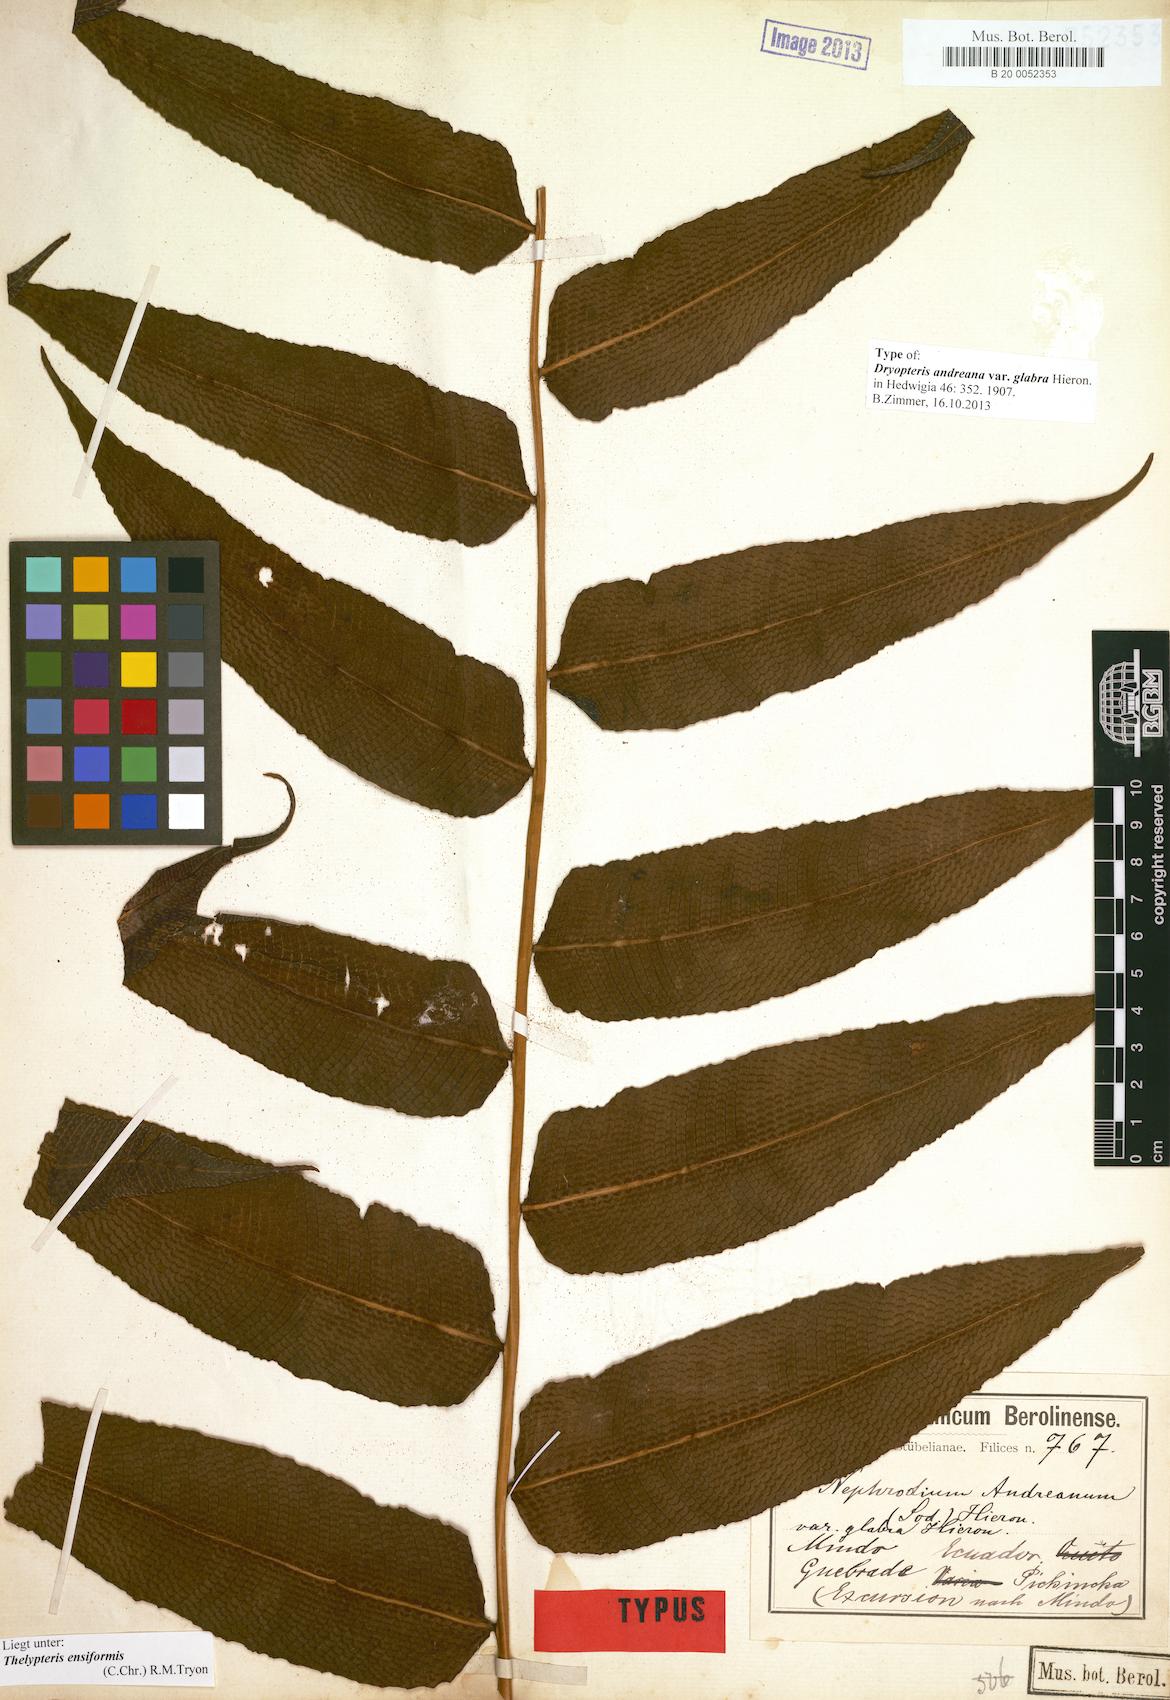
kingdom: Plantae
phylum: Tracheophyta
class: Polypodiopsida
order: Polypodiales
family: Thelypteridaceae
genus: Meniscium
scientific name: Meniscium andreanum
